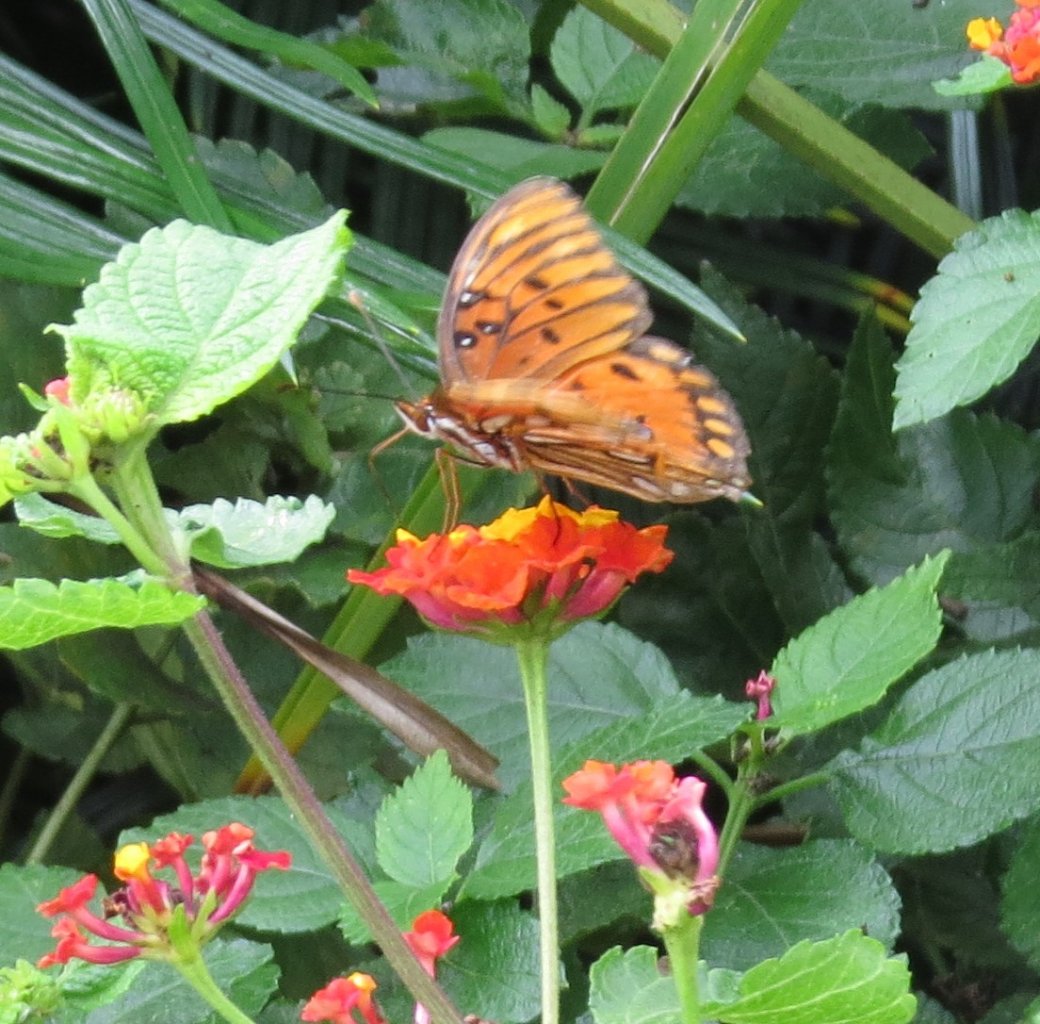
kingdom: Animalia
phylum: Arthropoda
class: Insecta
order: Lepidoptera
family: Nymphalidae
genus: Dione
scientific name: Dione vanillae
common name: Gulf Fritillary
